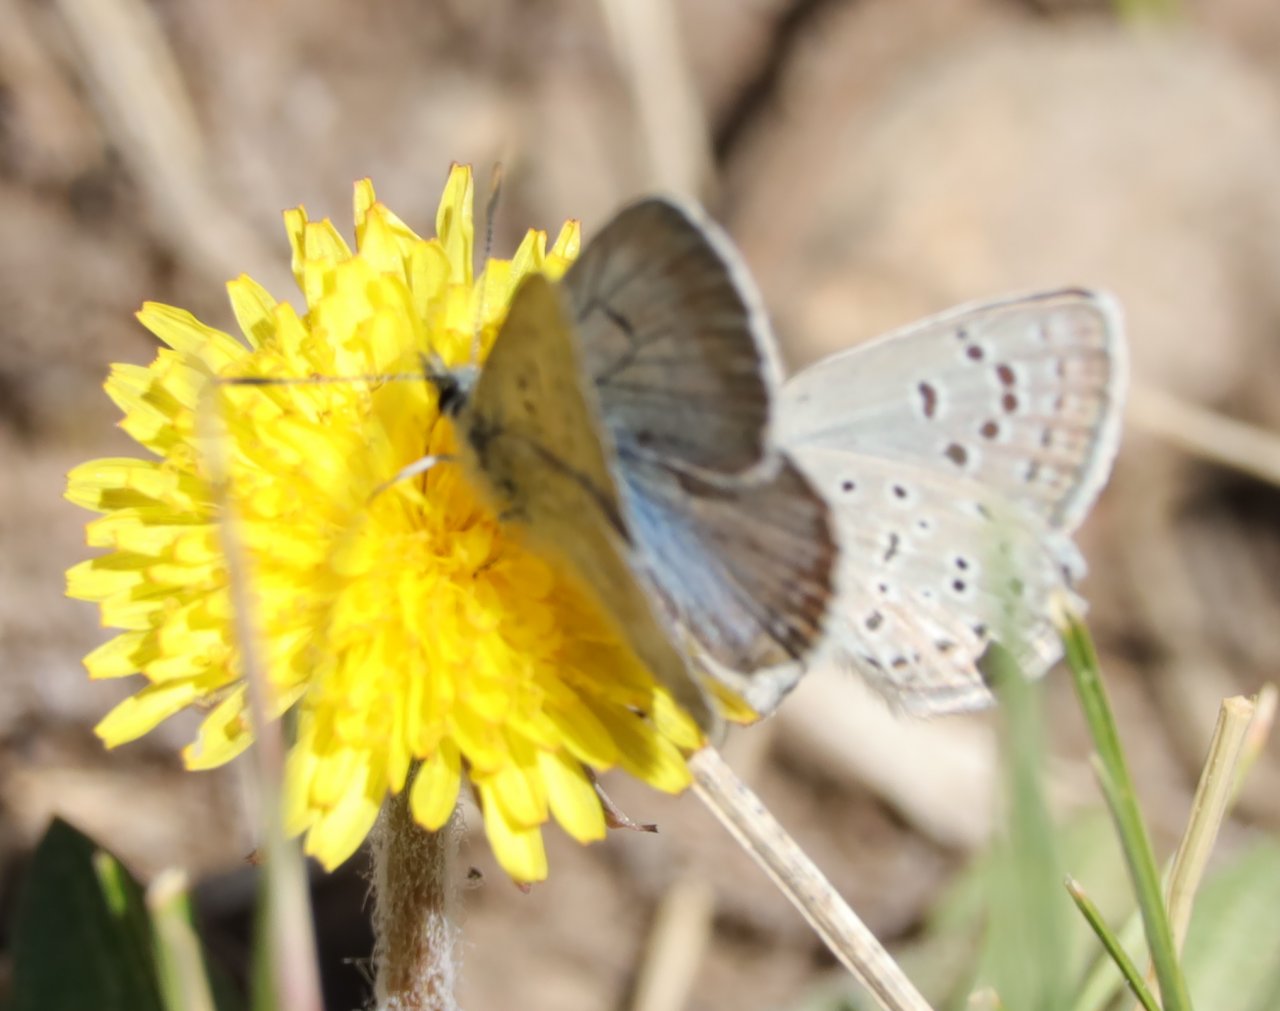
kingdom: Animalia
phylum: Arthropoda
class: Insecta
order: Lepidoptera
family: Lycaenidae
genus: Plebejus
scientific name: Plebejus saepiolus
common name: Greenish Blue
